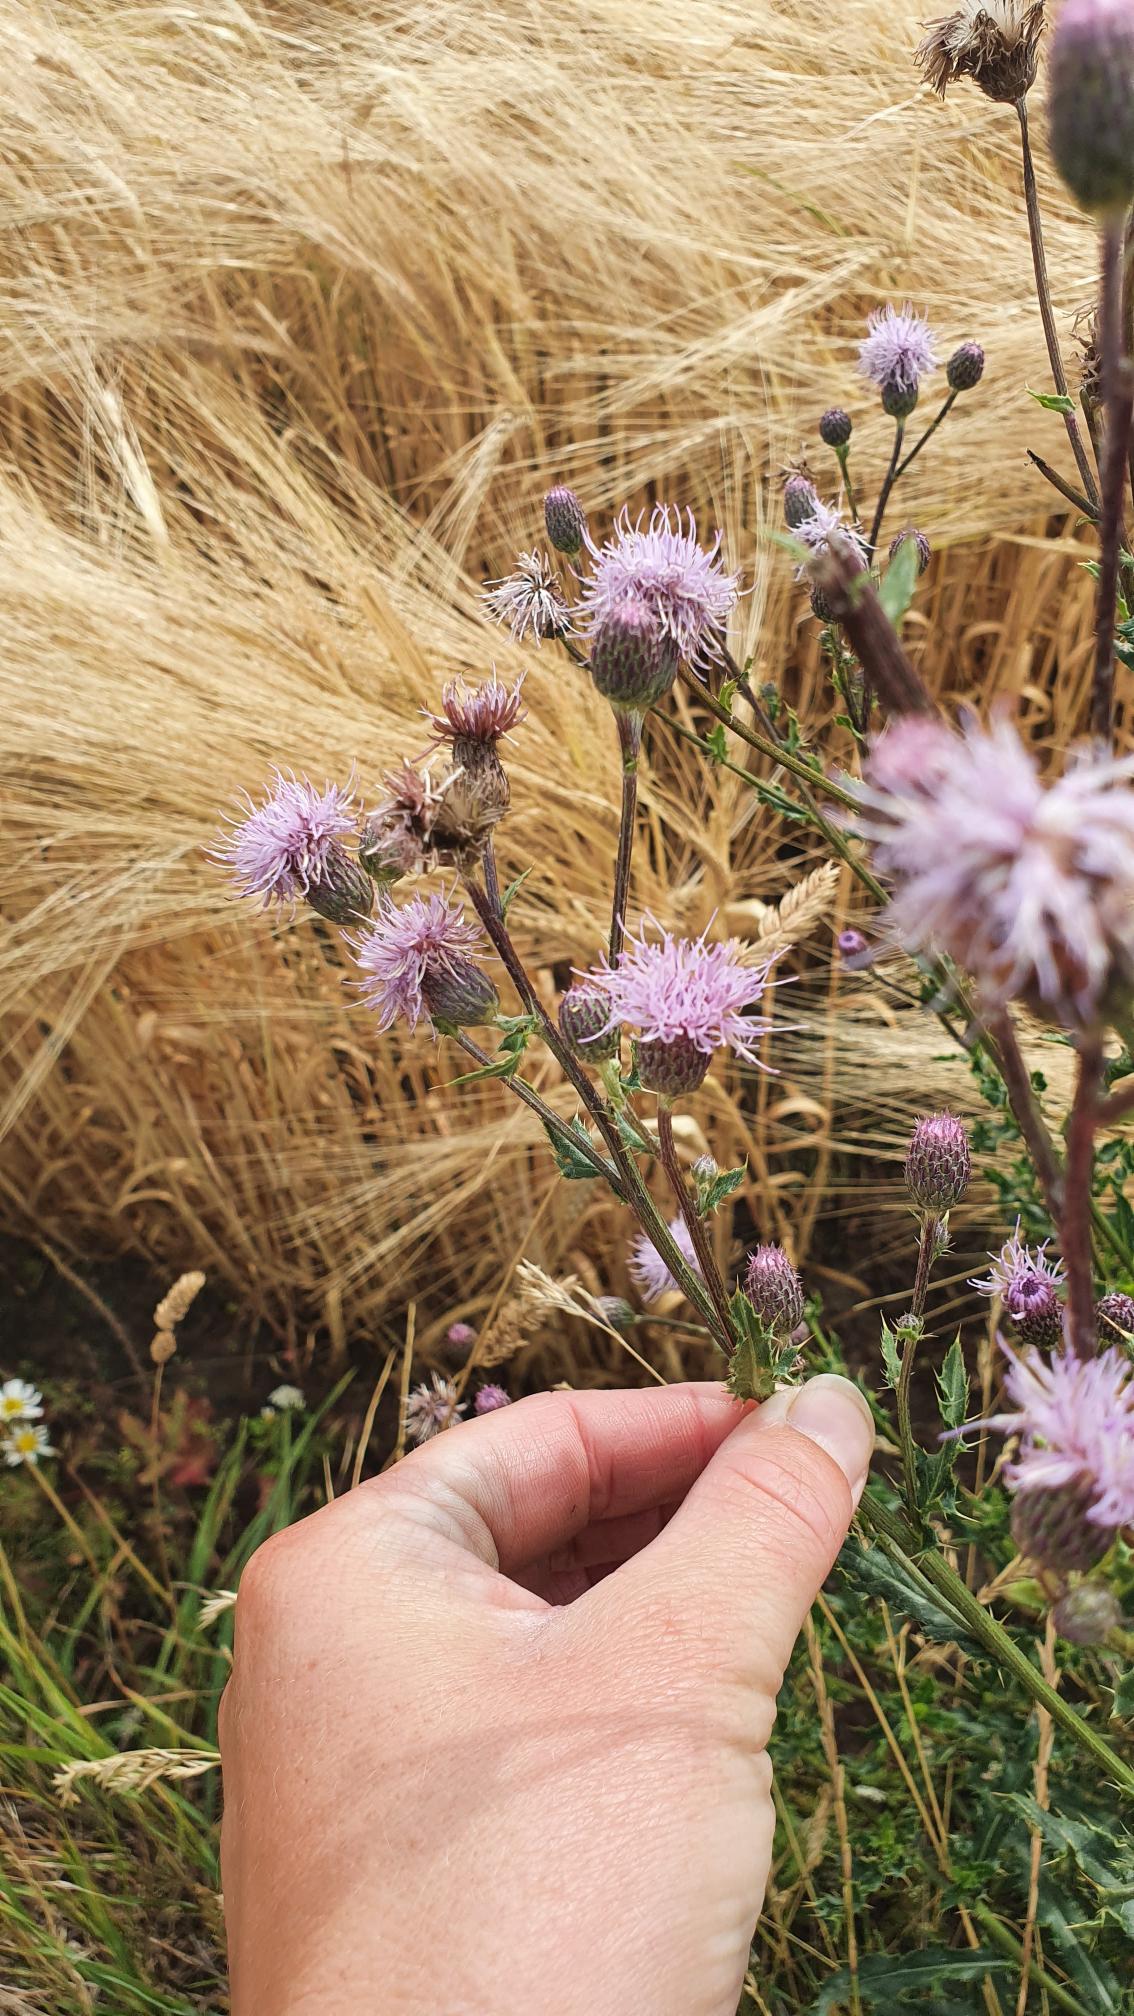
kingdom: Plantae
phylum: Tracheophyta
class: Magnoliopsida
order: Asterales
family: Asteraceae
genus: Cirsium
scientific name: Cirsium arvense
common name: Ager-tidsel
